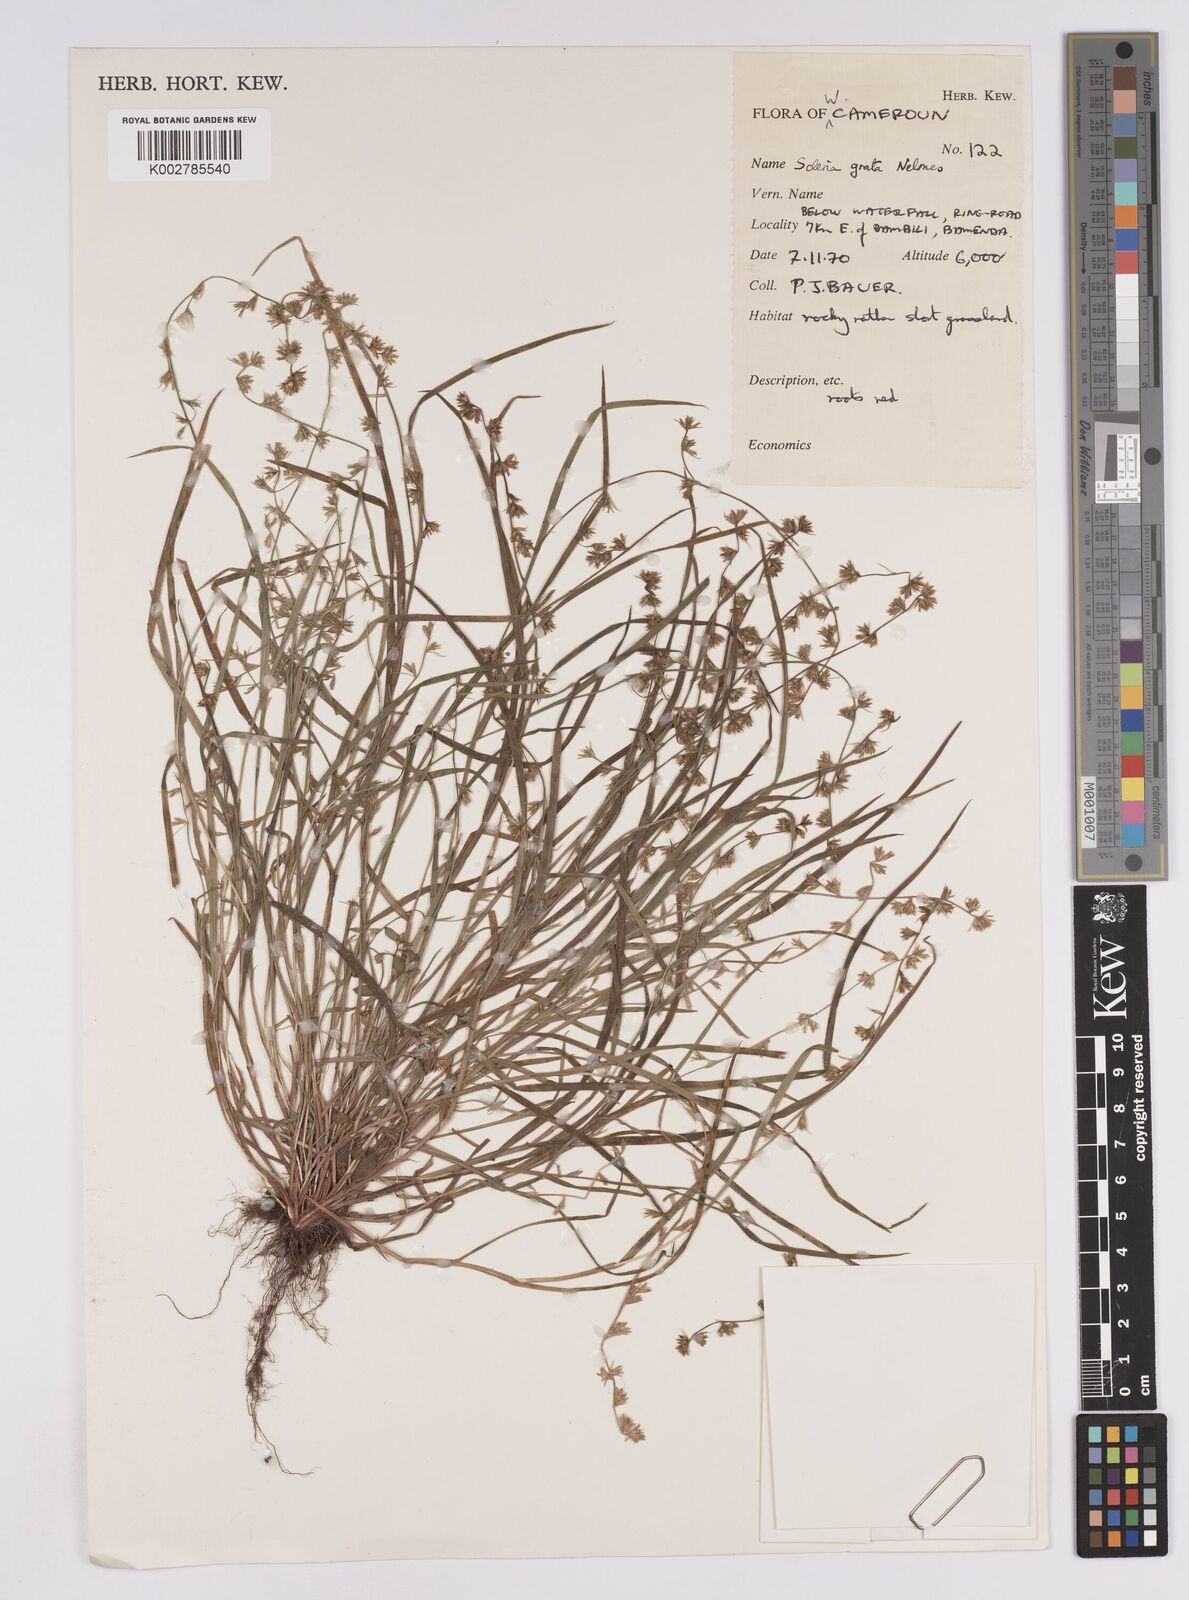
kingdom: Plantae
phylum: Tracheophyta
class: Liliopsida
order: Poales
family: Cyperaceae
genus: Scleria
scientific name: Scleria melanotricha
